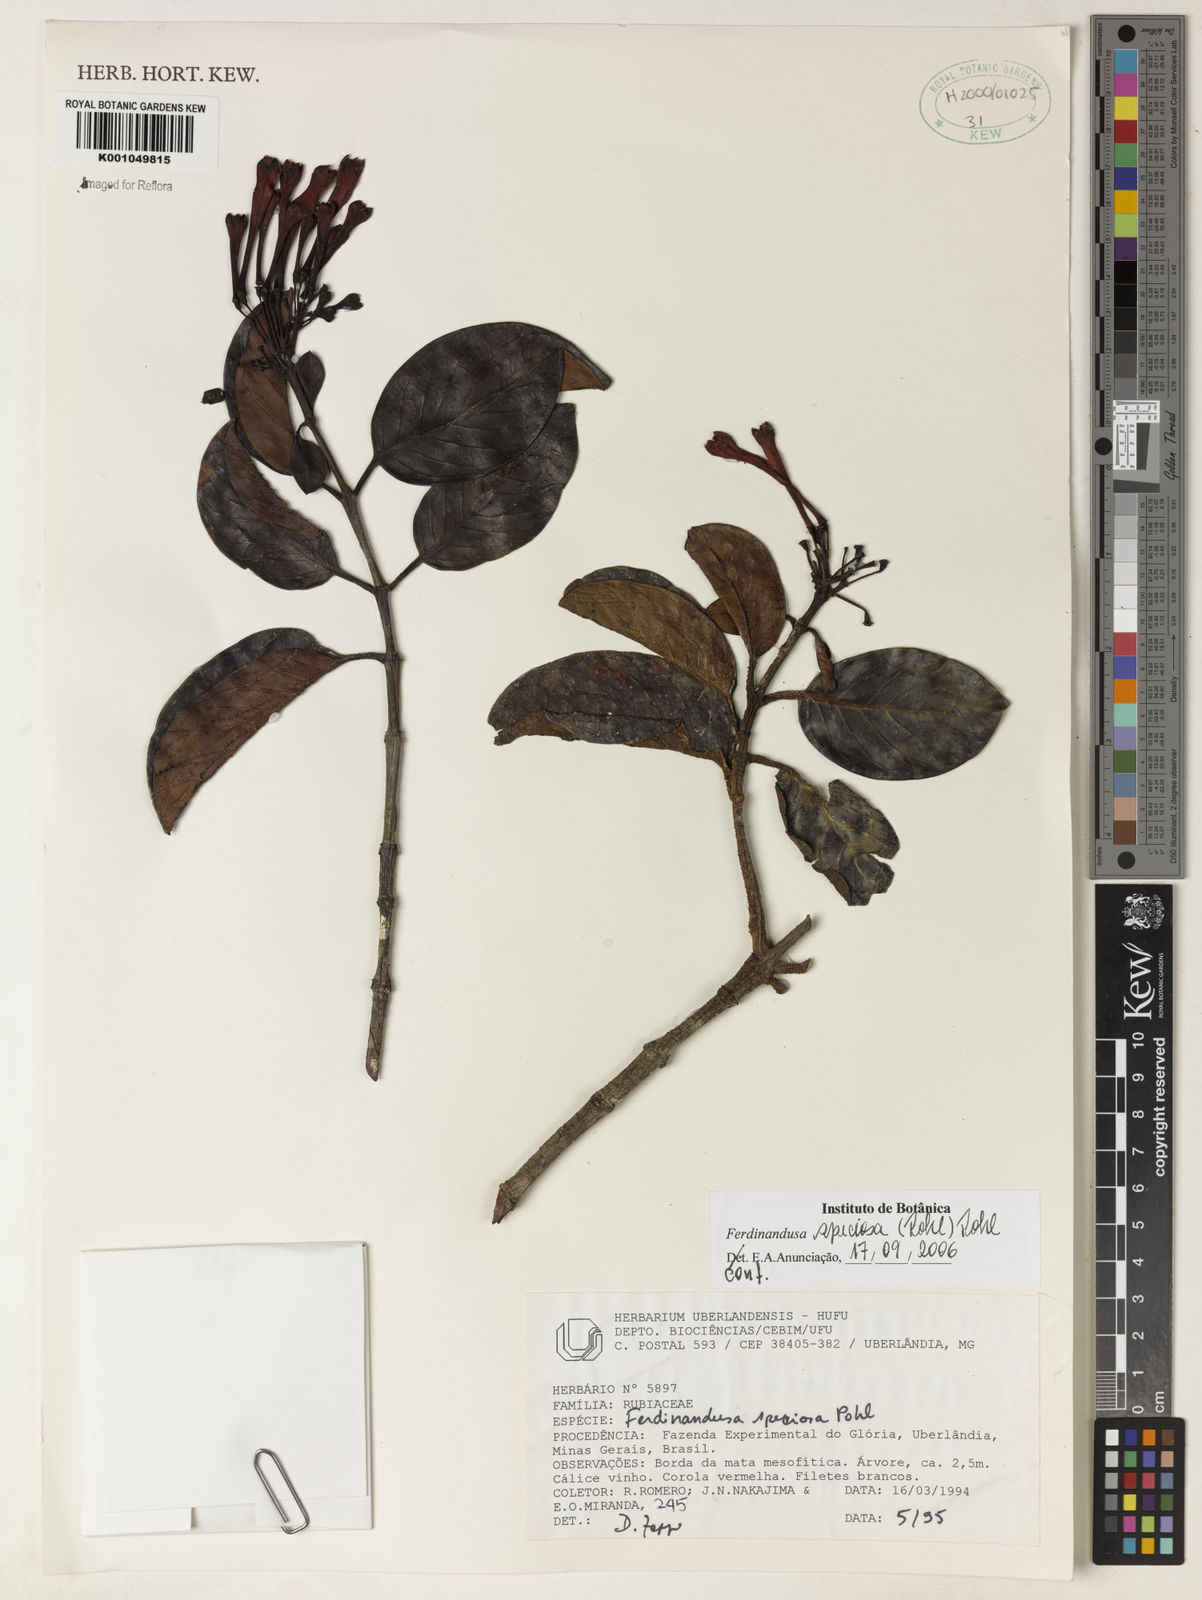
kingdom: Plantae
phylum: Tracheophyta
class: Magnoliopsida
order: Gentianales
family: Rubiaceae
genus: Ferdinandusa
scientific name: Ferdinandusa speciosa
